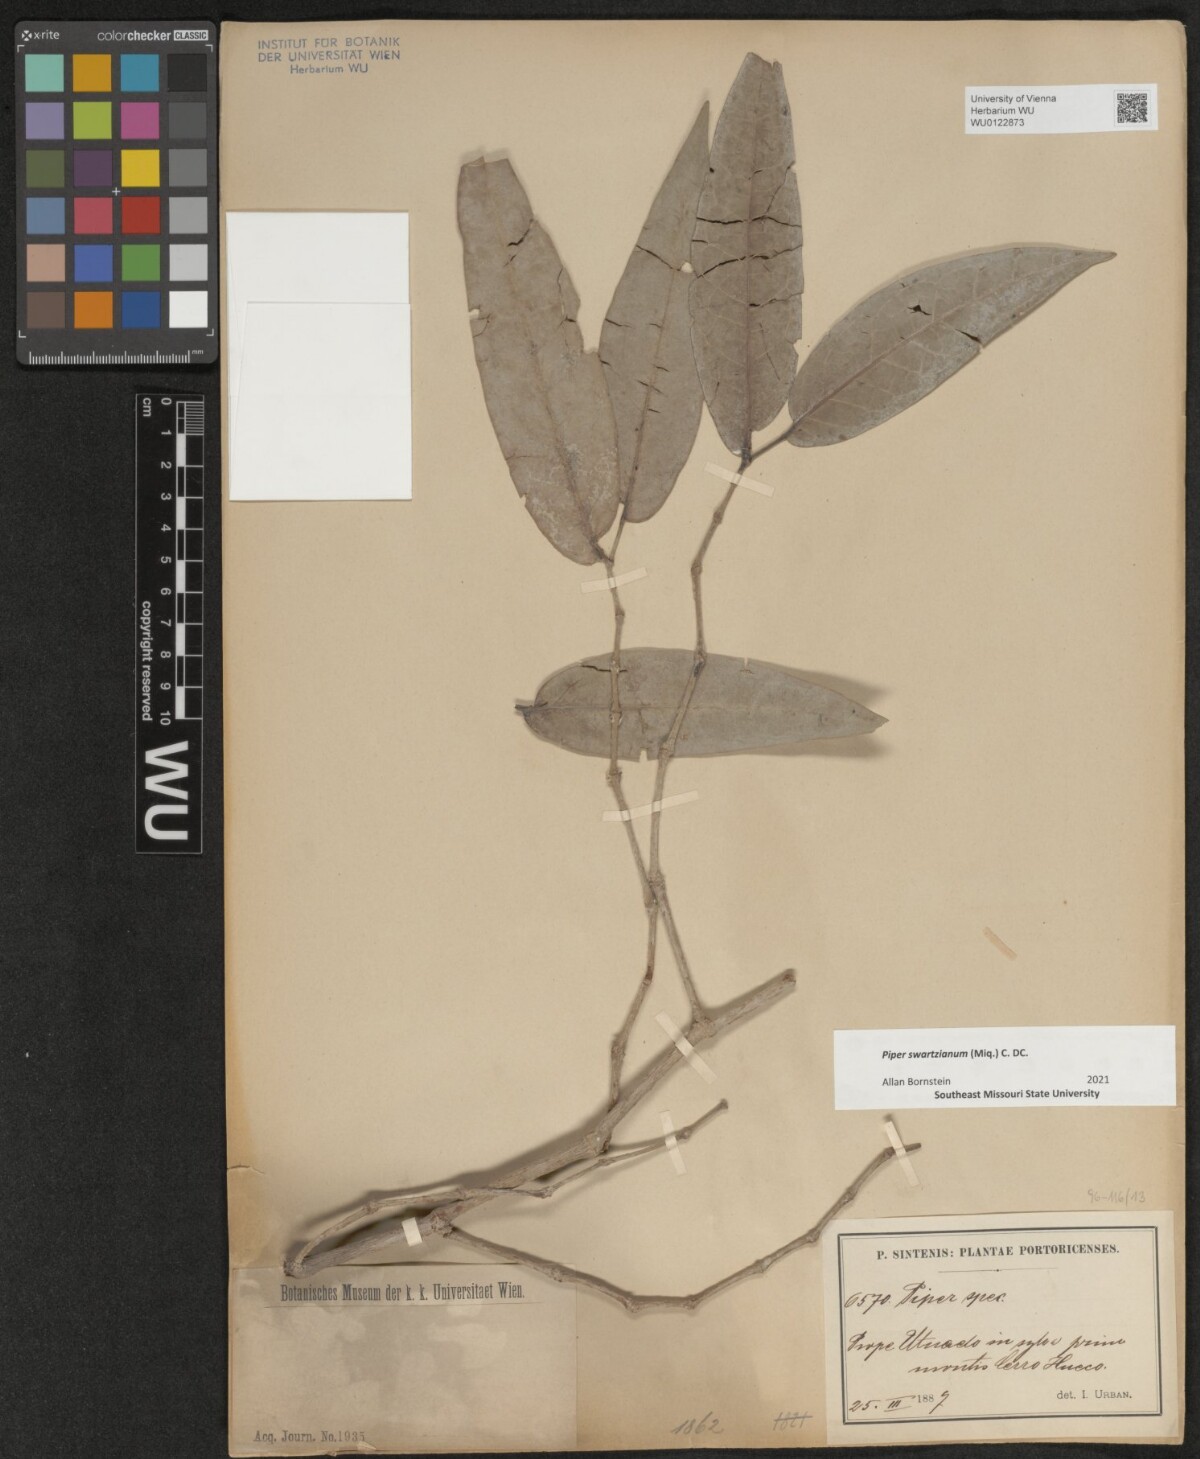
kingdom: Plantae
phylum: Tracheophyta
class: Magnoliopsida
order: Piperales
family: Piperaceae
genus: Piper
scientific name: Piper swartzianum
